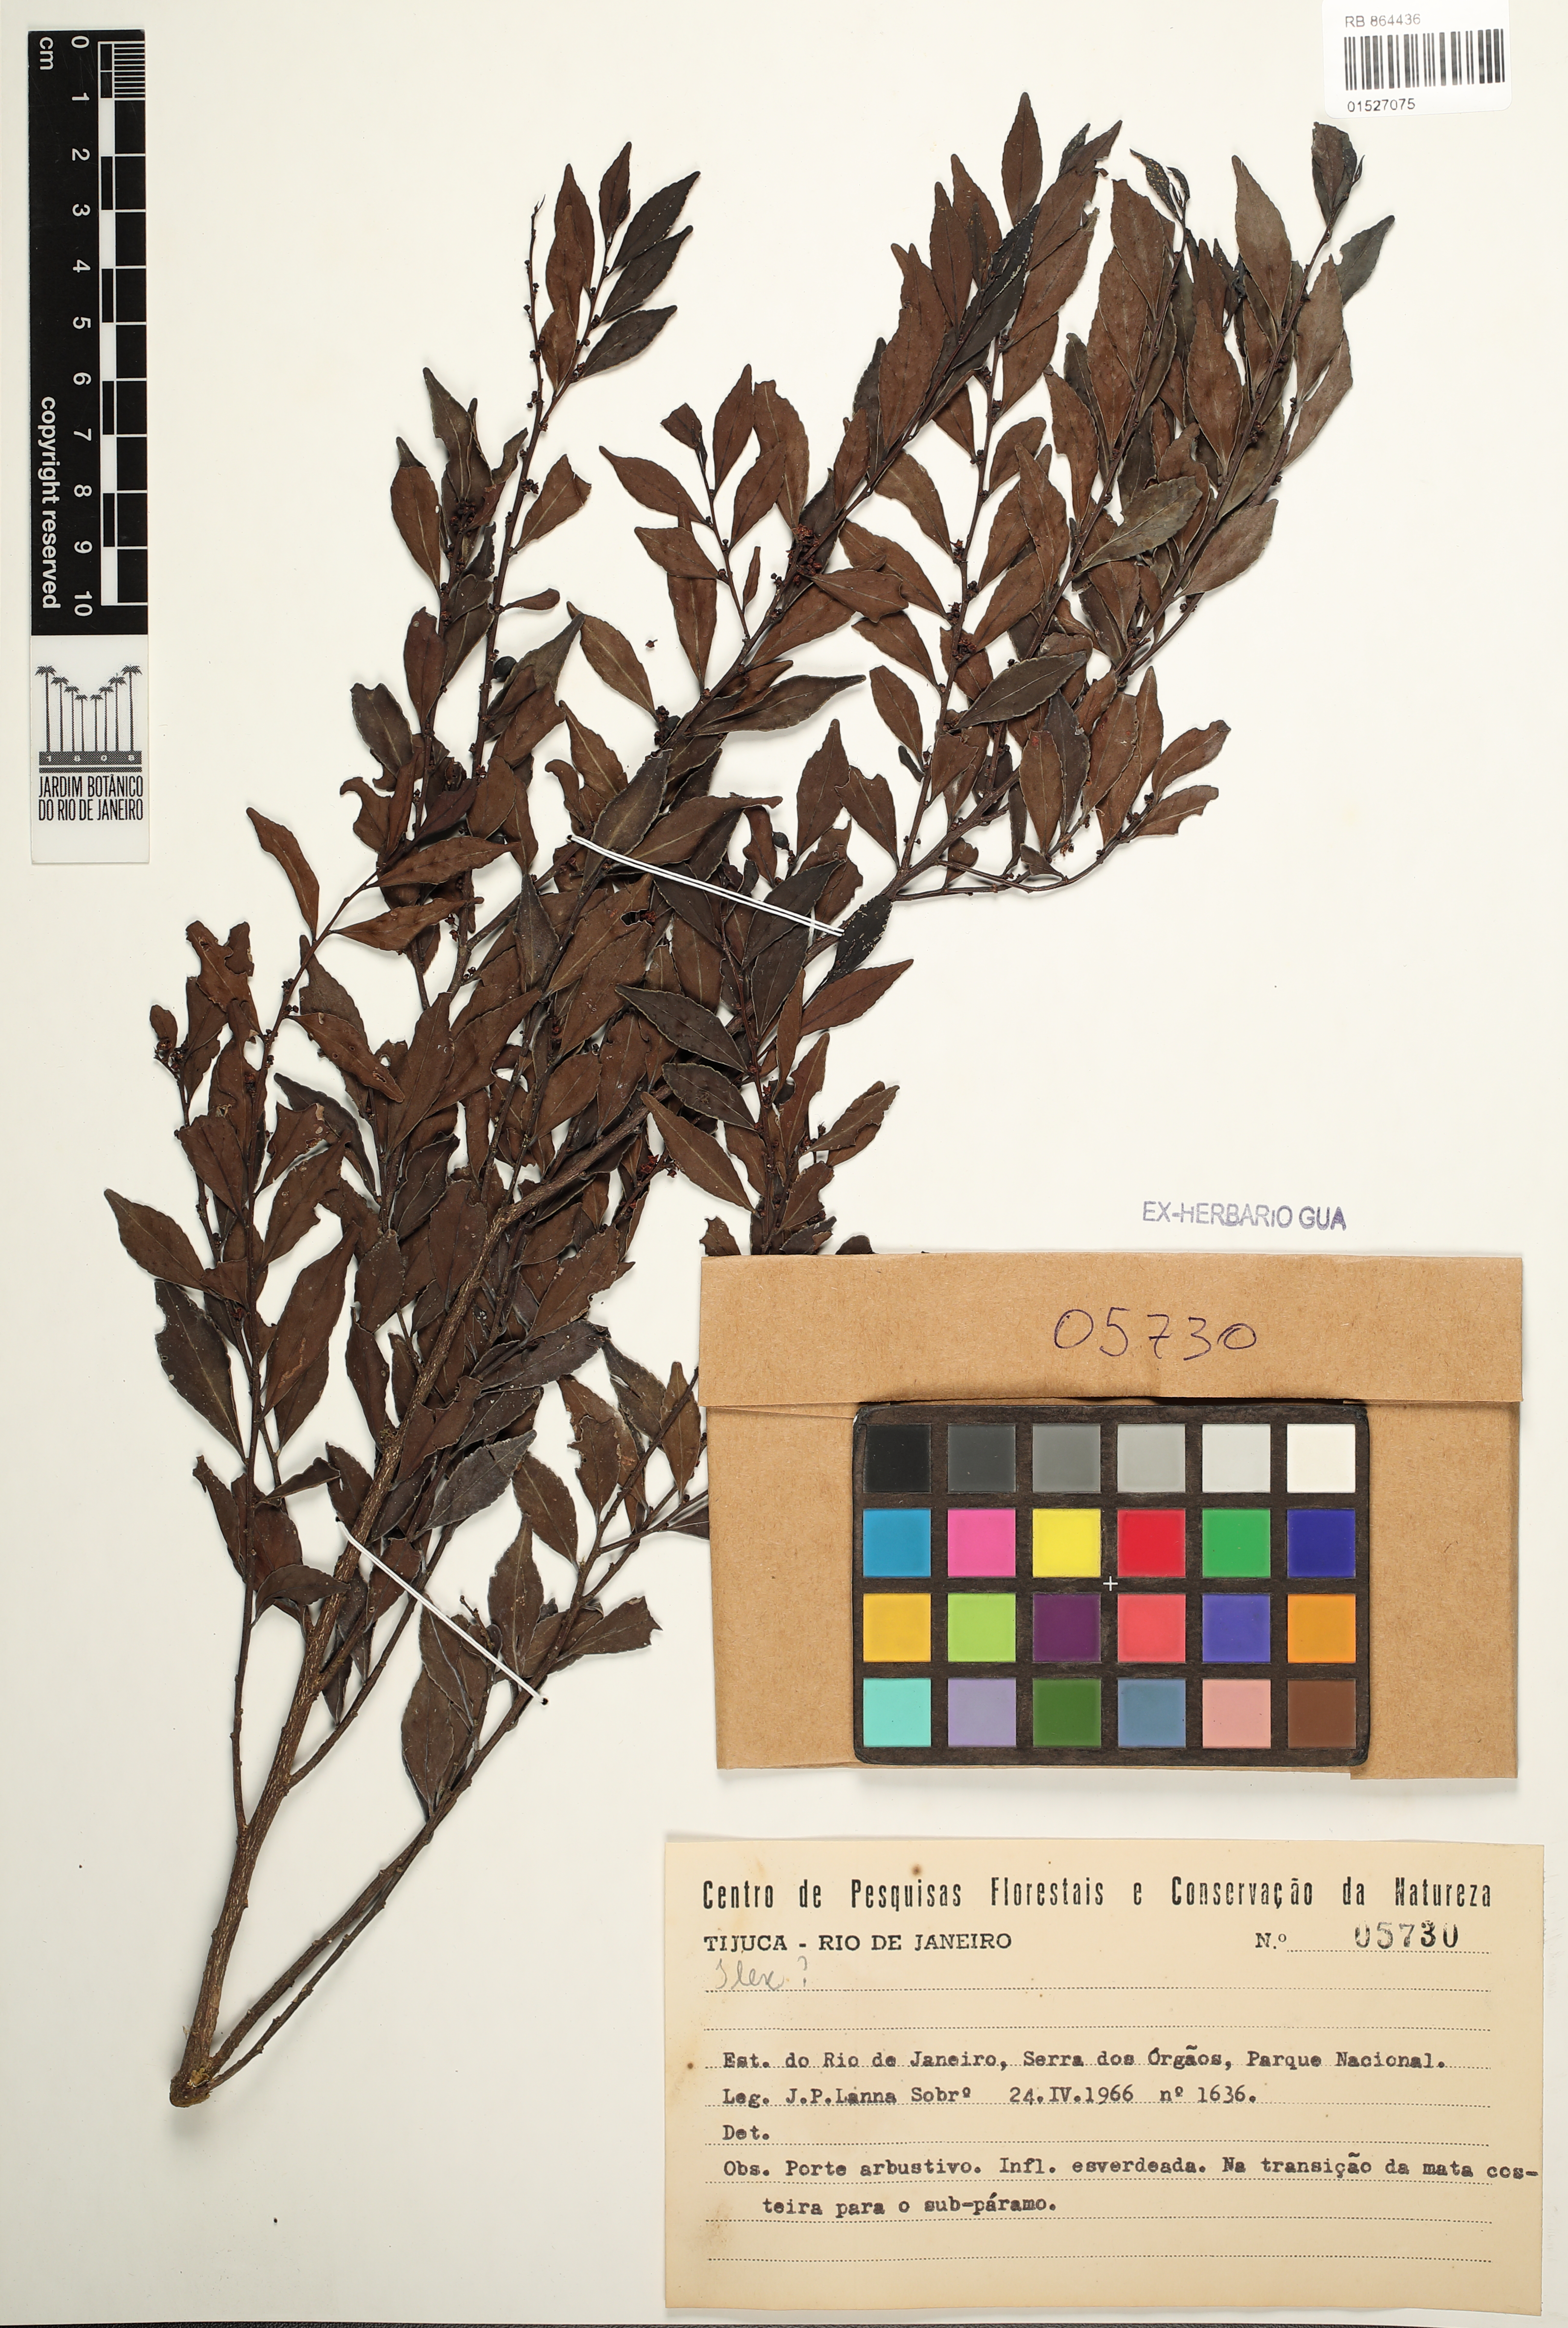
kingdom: Plantae
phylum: Tracheophyta
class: Magnoliopsida
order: Aquifoliales
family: Aquifoliaceae
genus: Ilex
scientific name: Ilex
